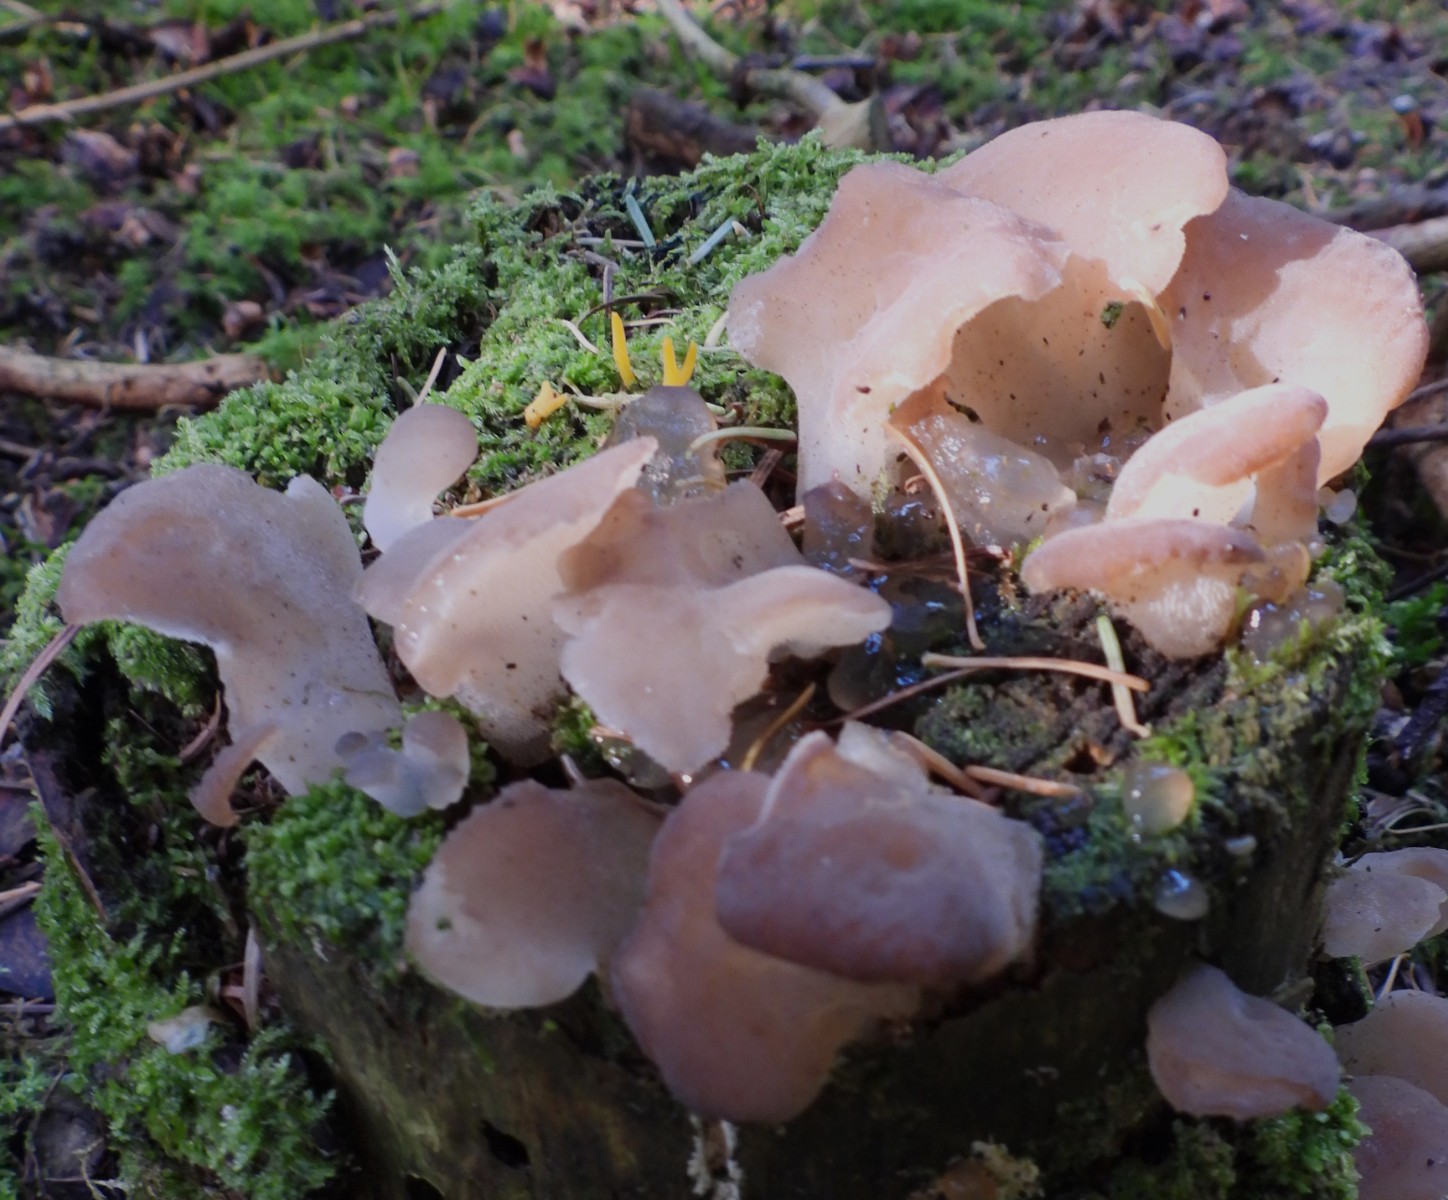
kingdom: Fungi
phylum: Basidiomycota
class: Agaricomycetes
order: Auriculariales
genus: Pseudohydnum
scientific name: Pseudohydnum gelatinosum
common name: bævretand
